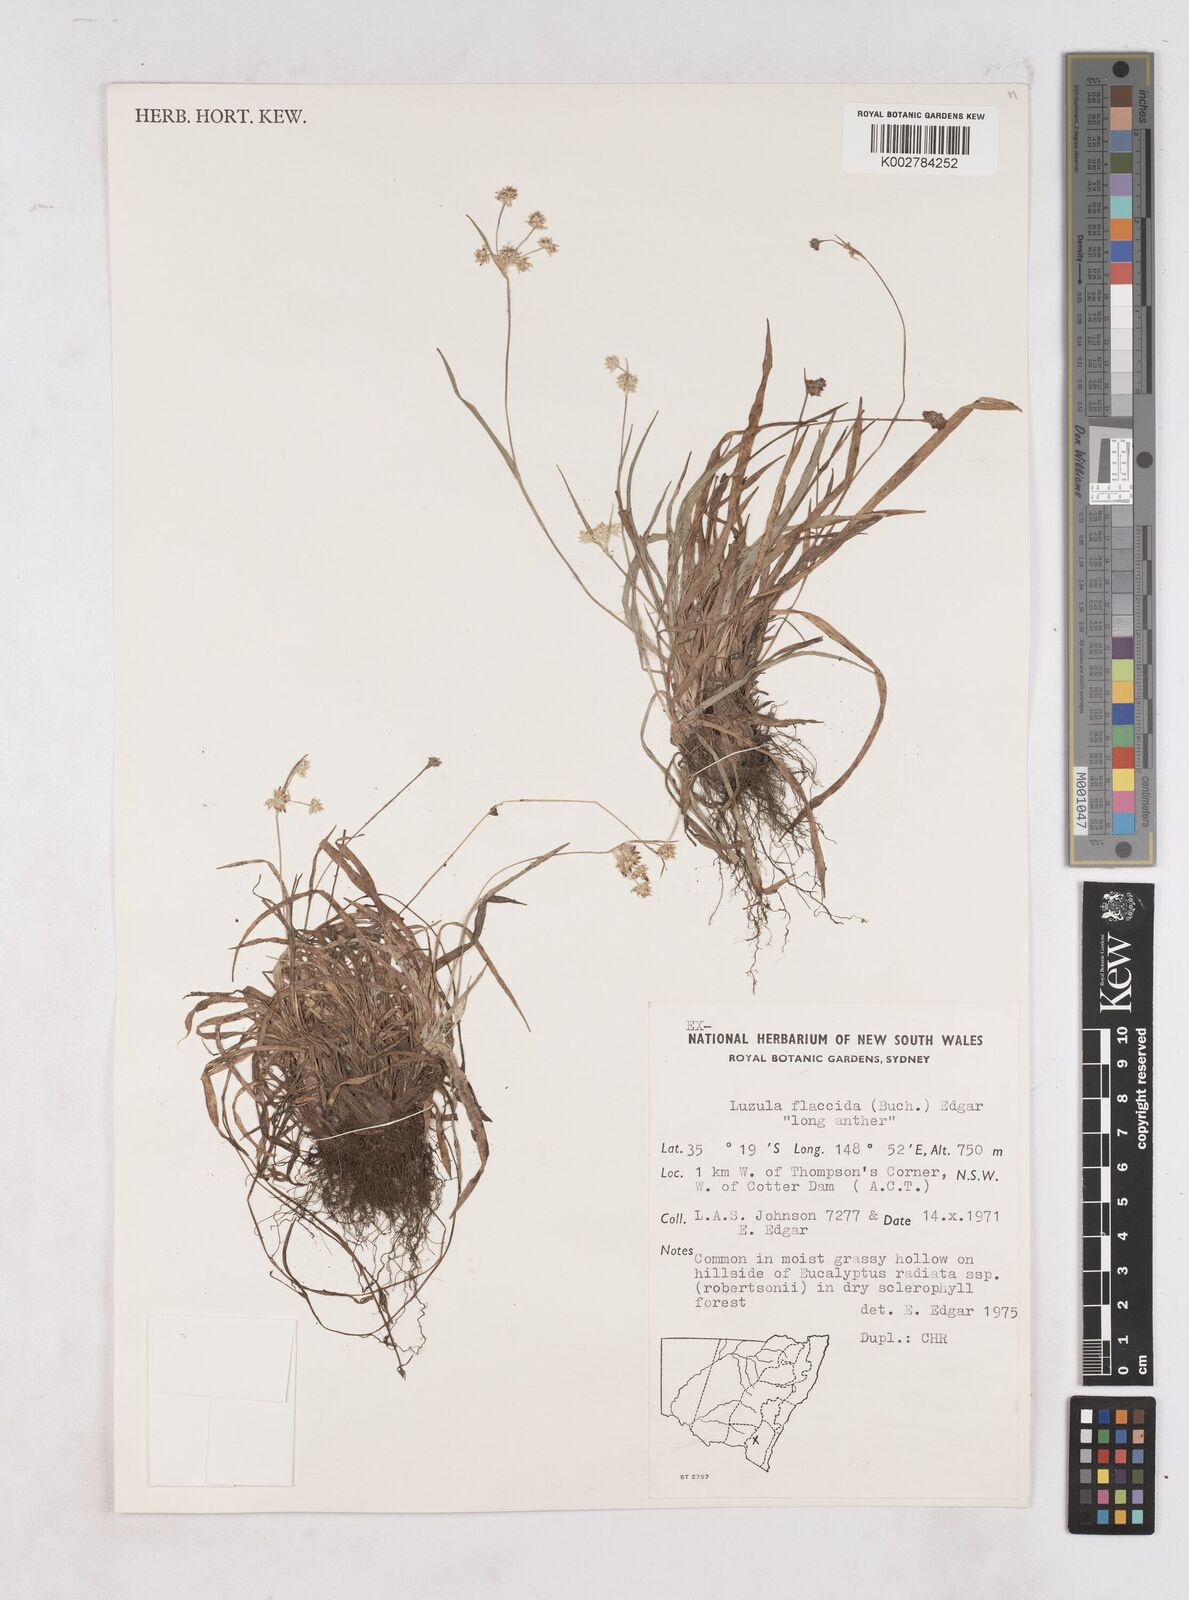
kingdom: Plantae
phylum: Tracheophyta
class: Liliopsida
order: Poales
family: Juncaceae
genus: Luzula
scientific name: Luzula flaccida
